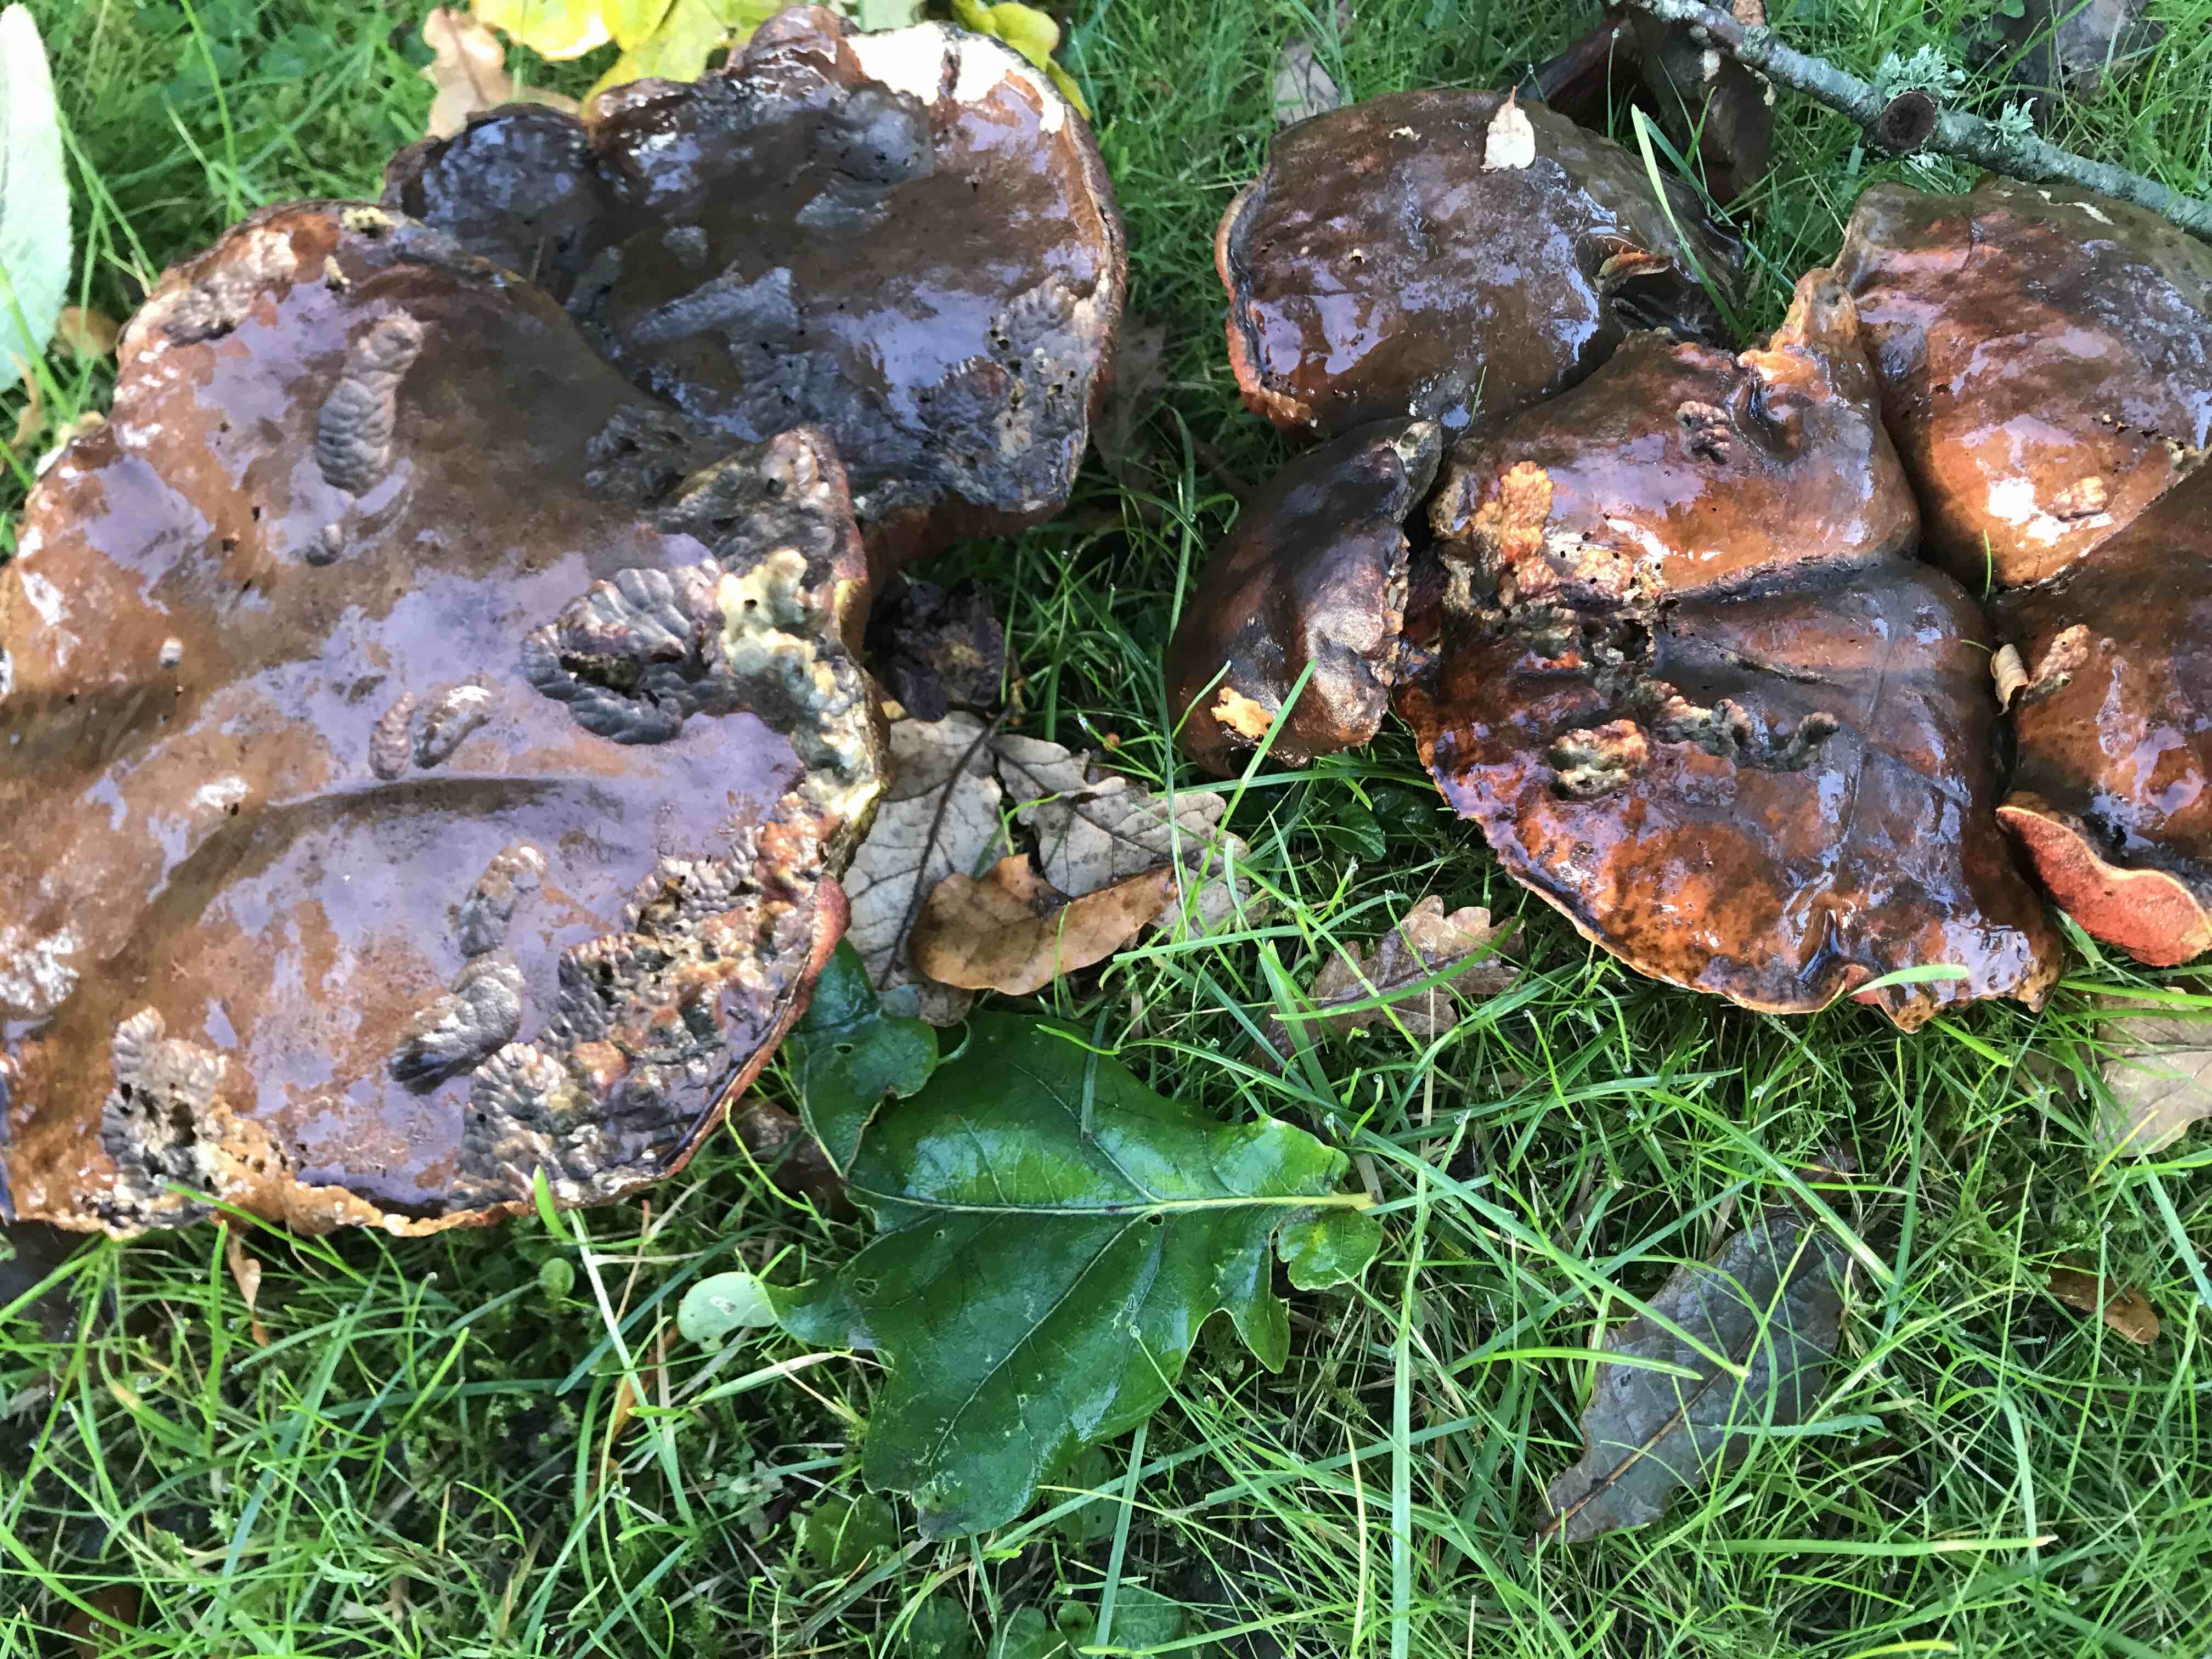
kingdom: Fungi
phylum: Basidiomycota
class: Agaricomycetes
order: Boletales
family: Boletaceae
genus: Neoboletus
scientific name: Neoboletus erythropus
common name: punktstokket indigorørhat
